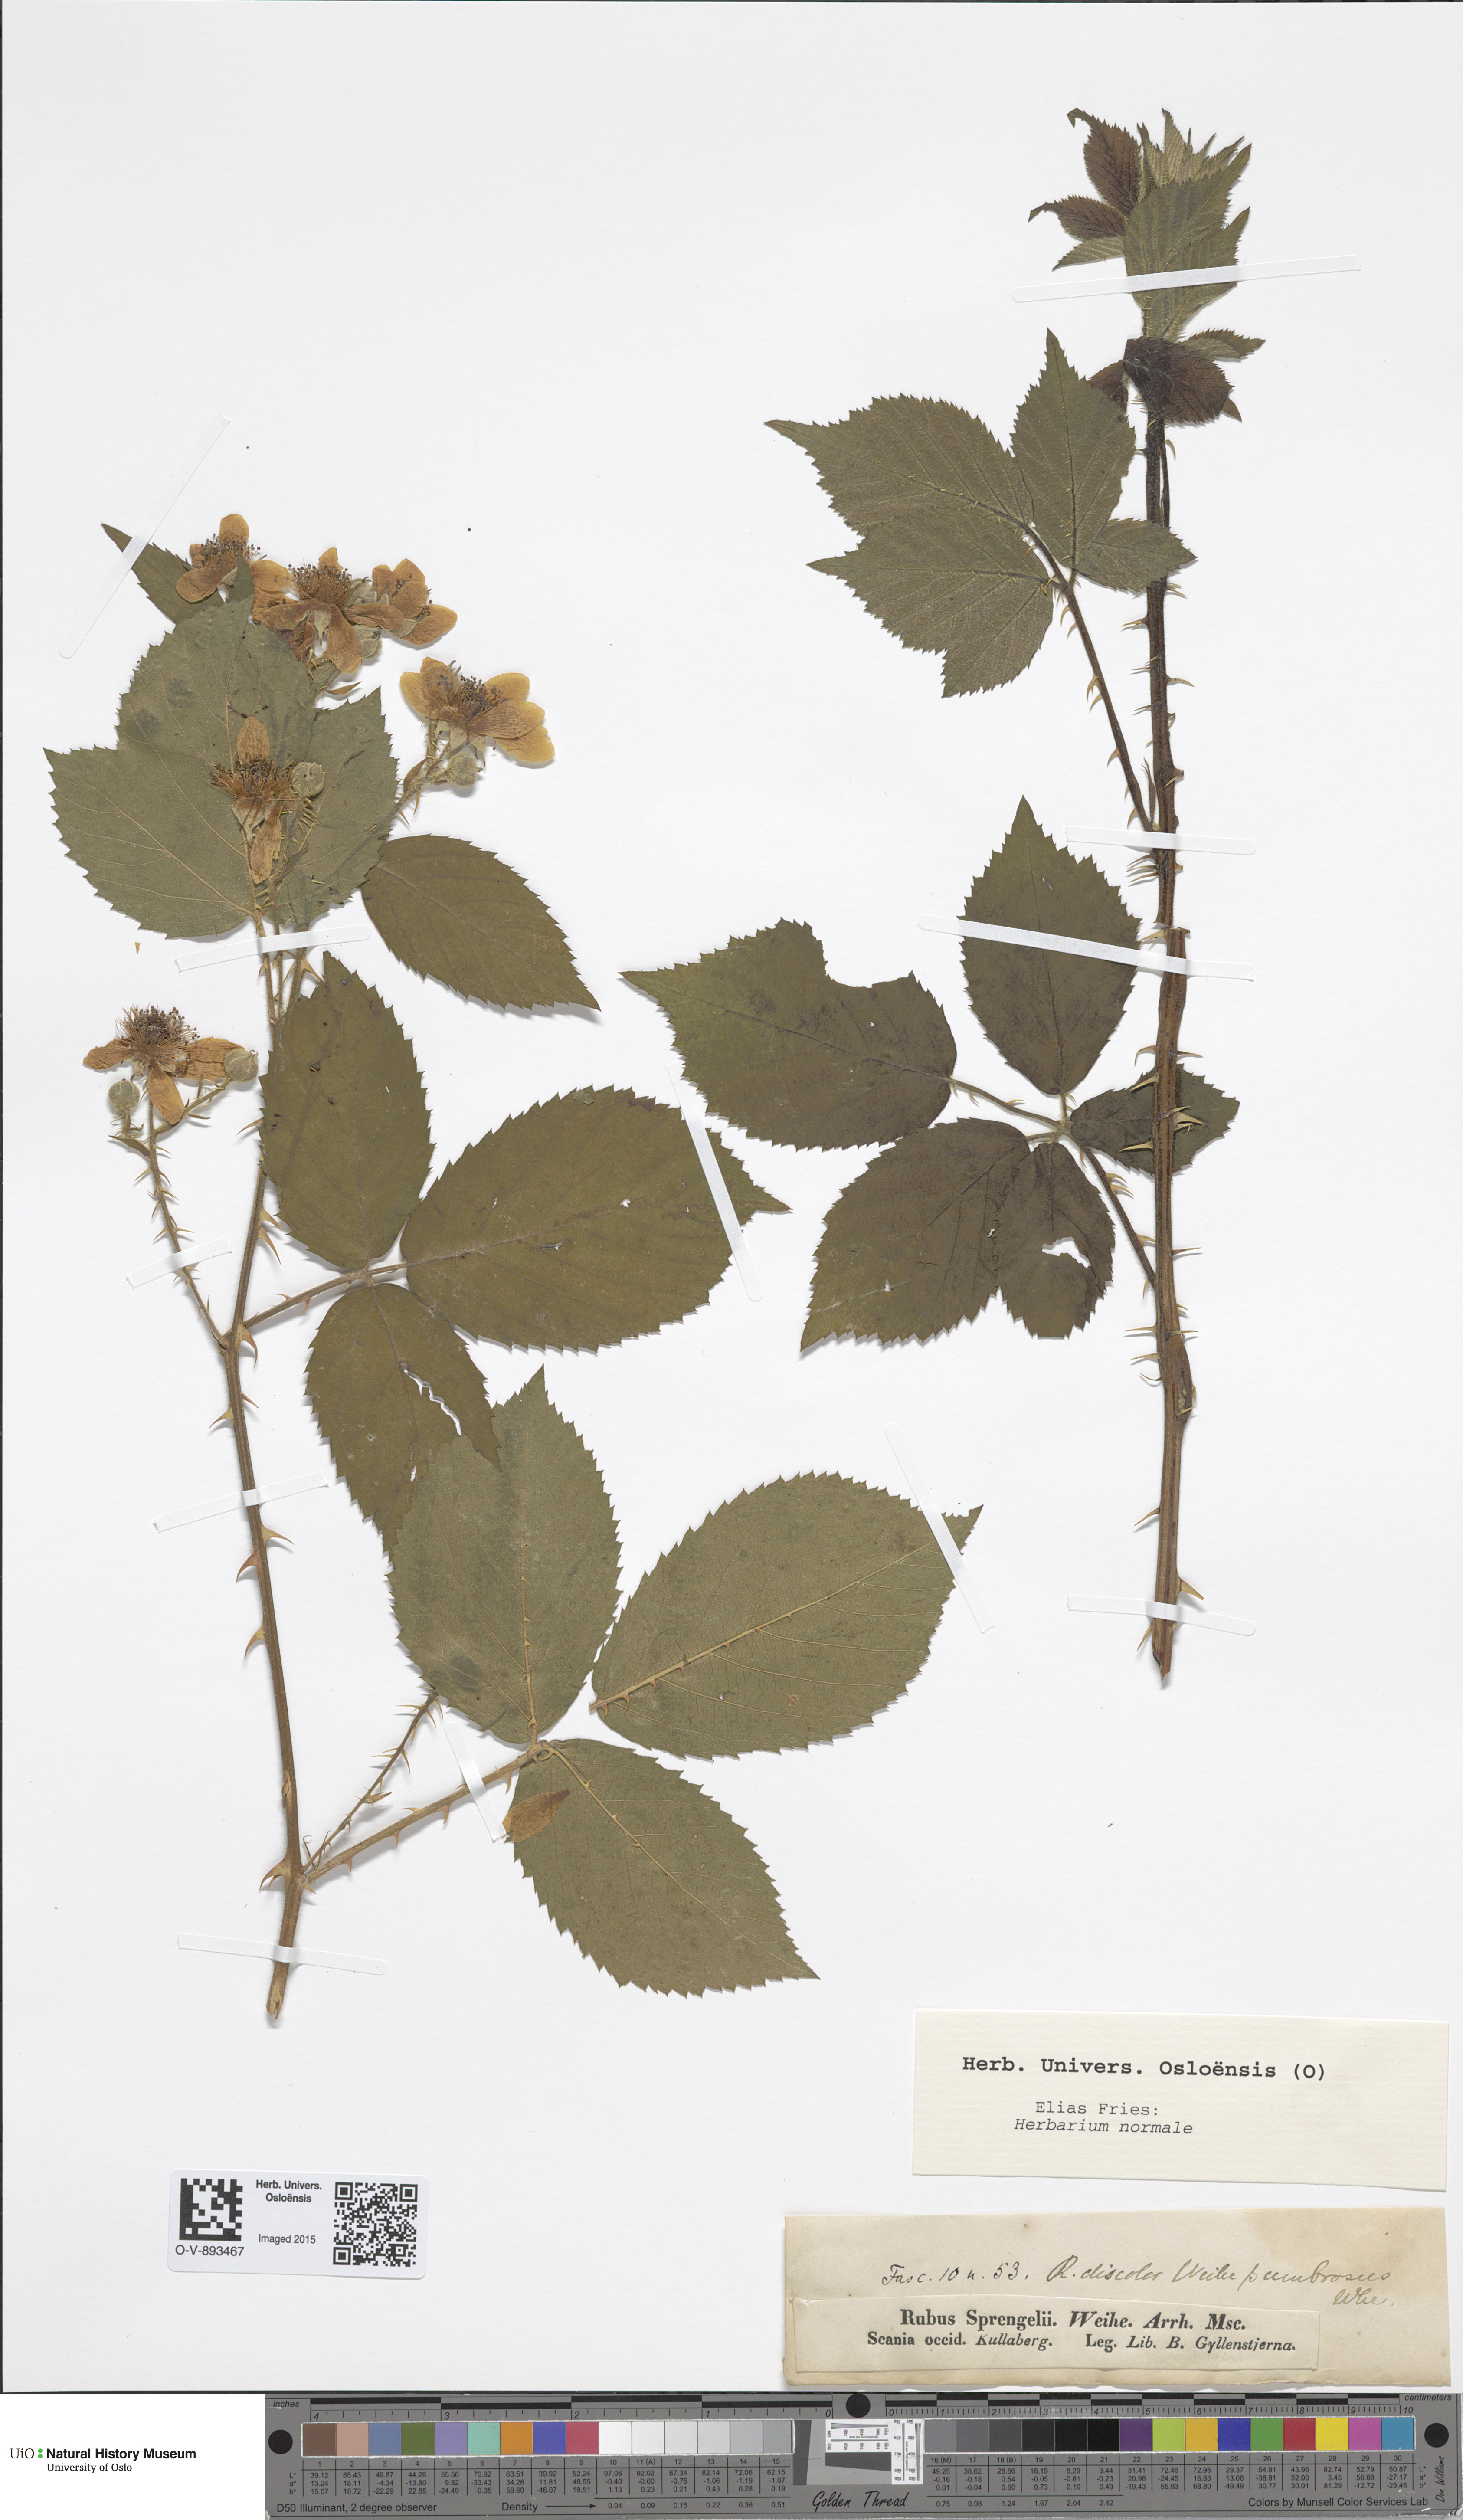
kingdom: Plantae
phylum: Tracheophyta
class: Magnoliopsida
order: Rosales
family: Rosaceae
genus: Rubus
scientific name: Rubus sprengelii
